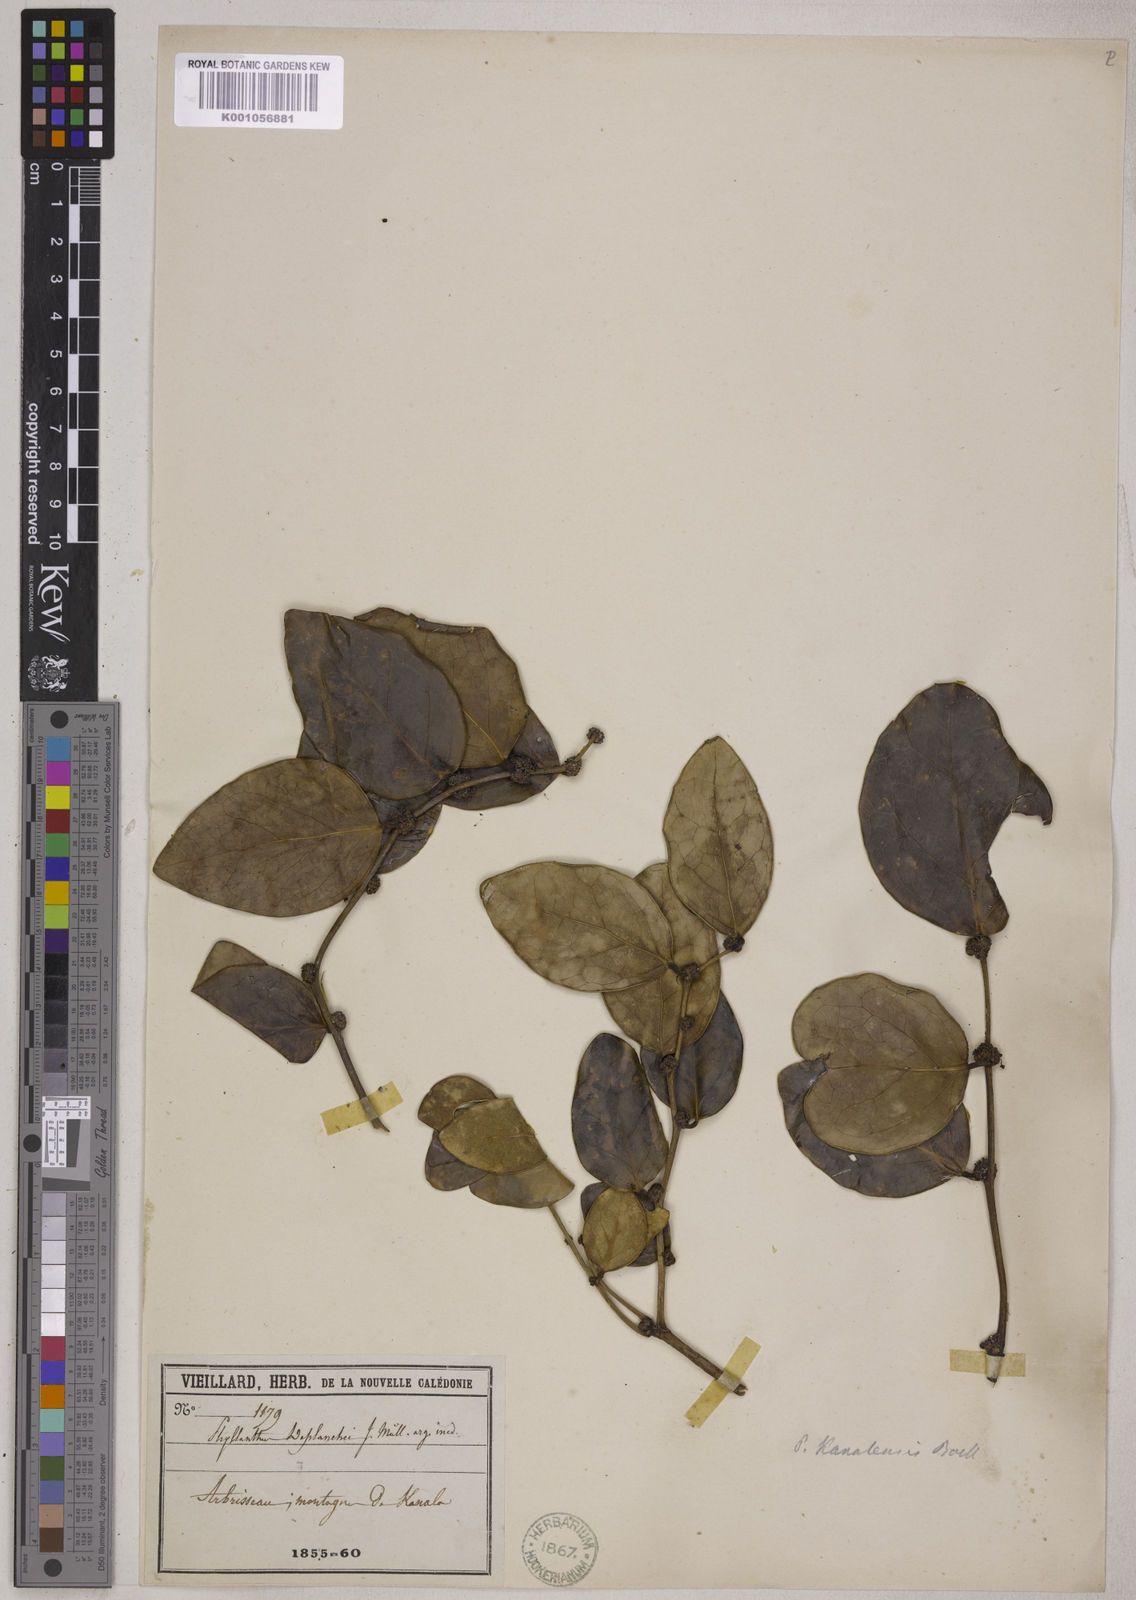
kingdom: Plantae
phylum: Tracheophyta
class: Magnoliopsida
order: Malpighiales
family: Phyllanthaceae
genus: Phyllanthus
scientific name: Phyllanthus kanalensis
